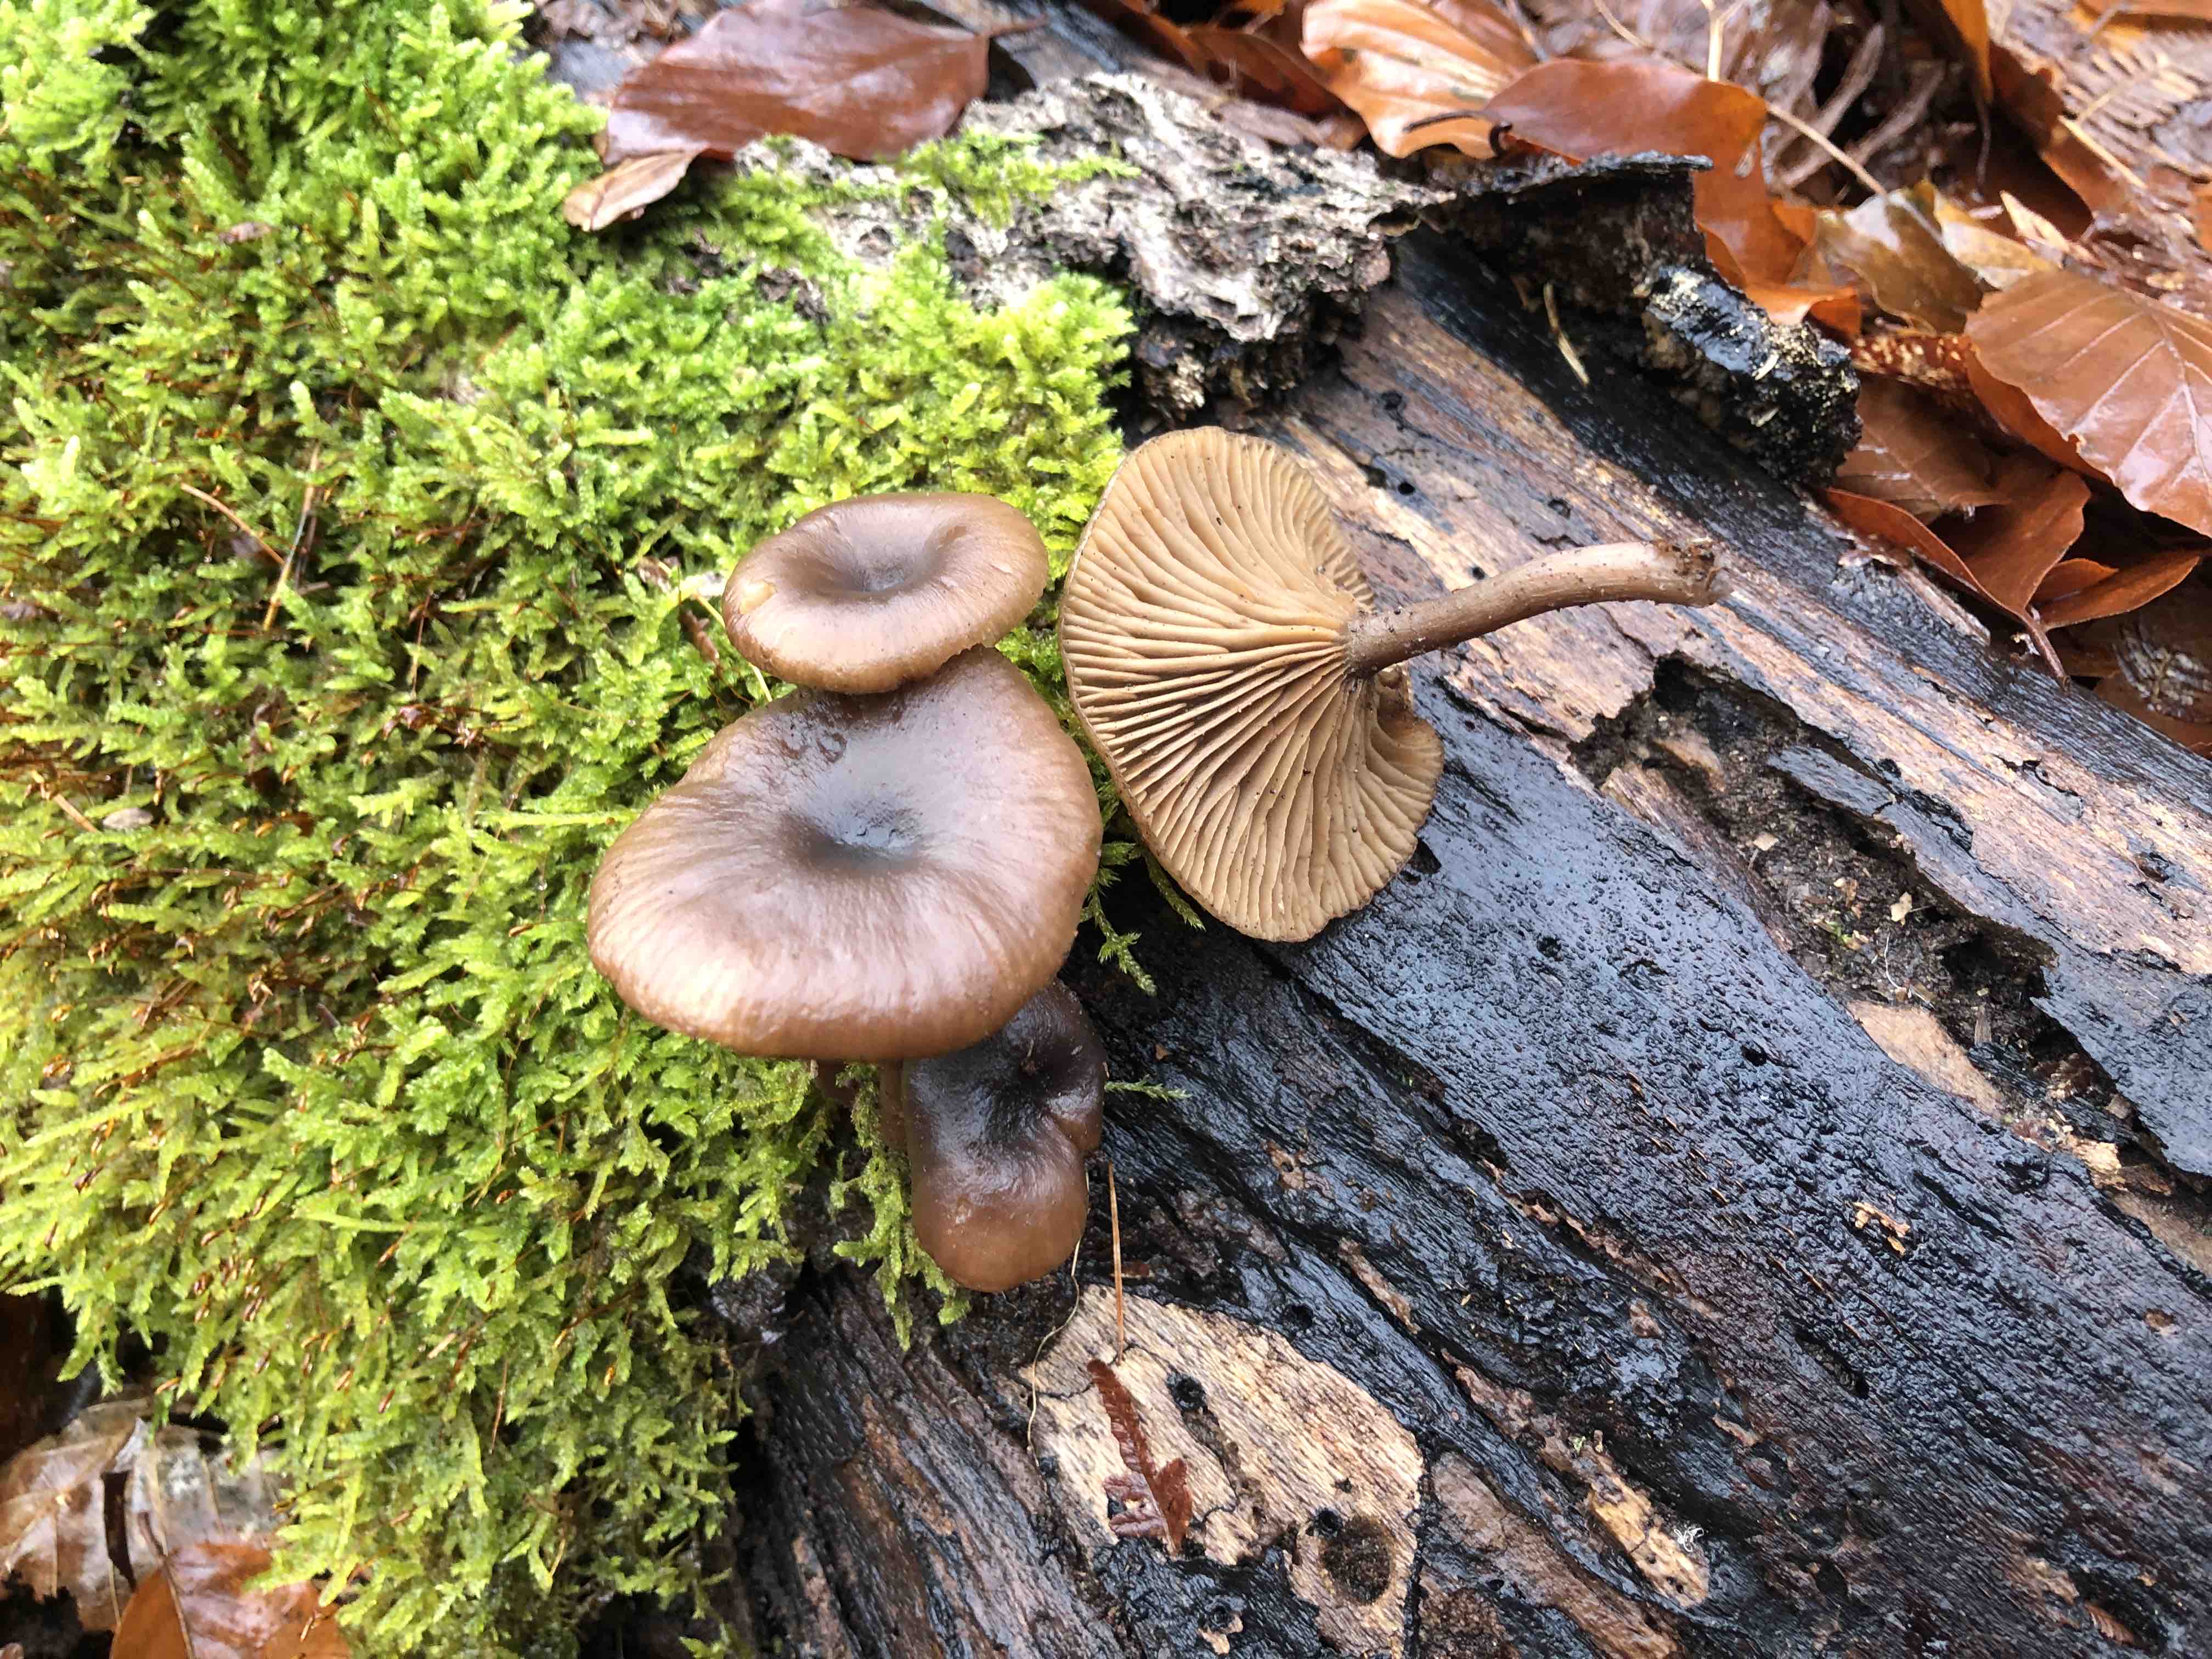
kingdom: Fungi
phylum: Basidiomycota
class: Agaricomycetes
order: Agaricales
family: Pseudoclitocybaceae
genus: Pseudoclitocybe
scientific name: Pseudoclitocybe cyathiformis
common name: almindelig bægertragthat
